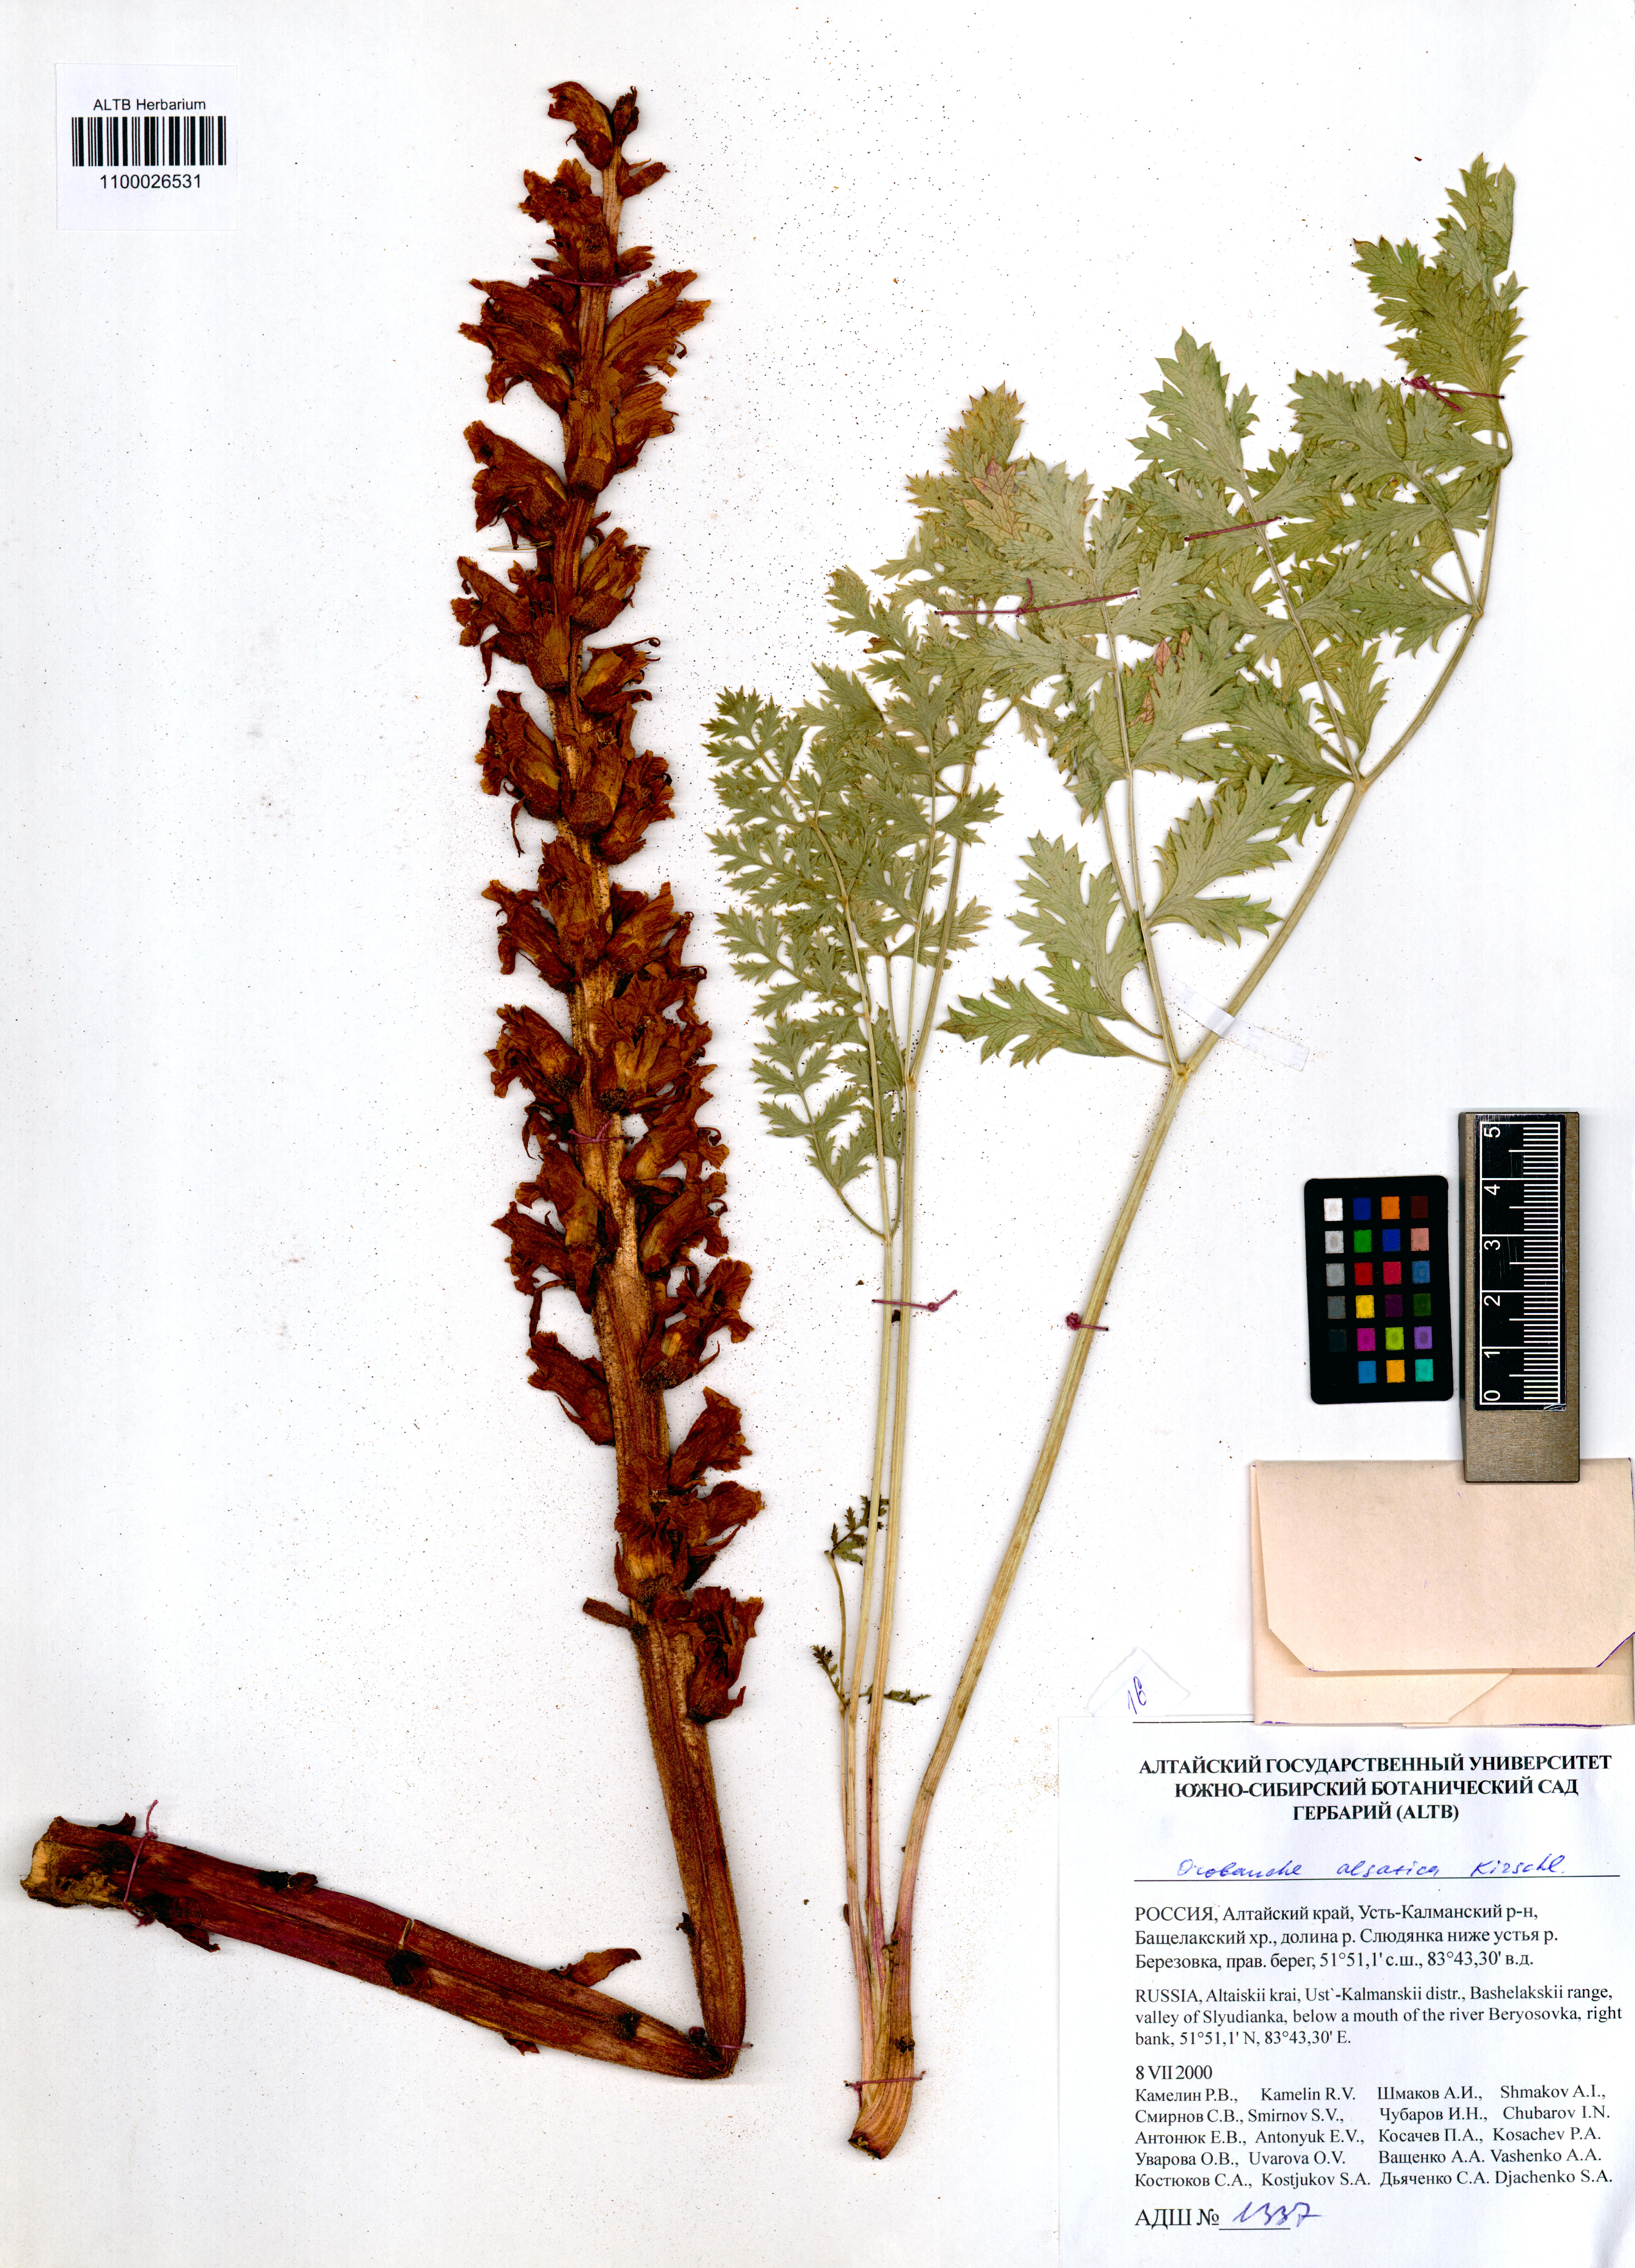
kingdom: Plantae
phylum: Tracheophyta
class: Magnoliopsida
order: Lamiales
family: Orobanchaceae
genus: Orobanche
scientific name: Orobanche alsatica
